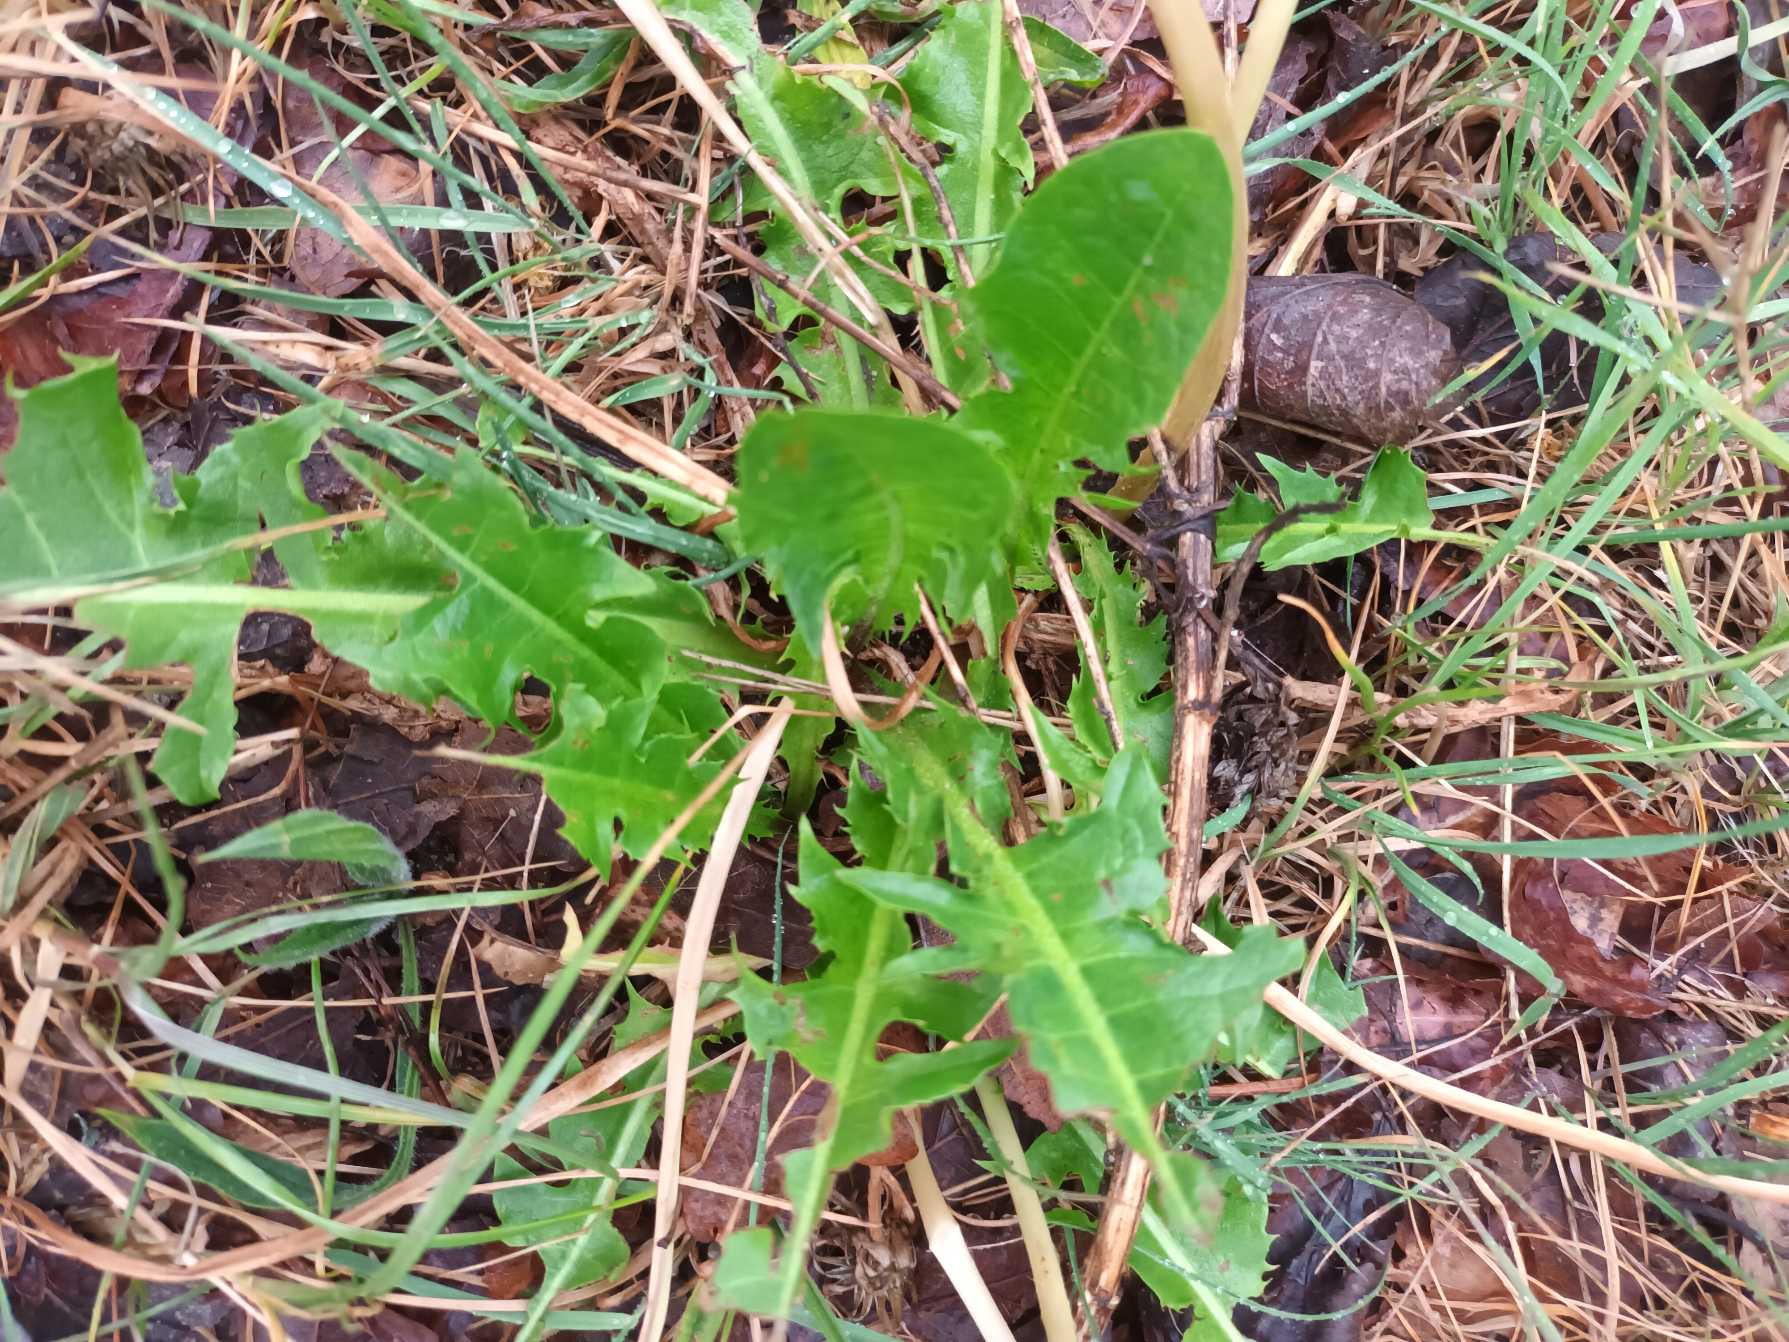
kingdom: Plantae
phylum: Tracheophyta
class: Magnoliopsida
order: Asterales
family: Asteraceae
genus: Taraxacum
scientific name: Taraxacum
